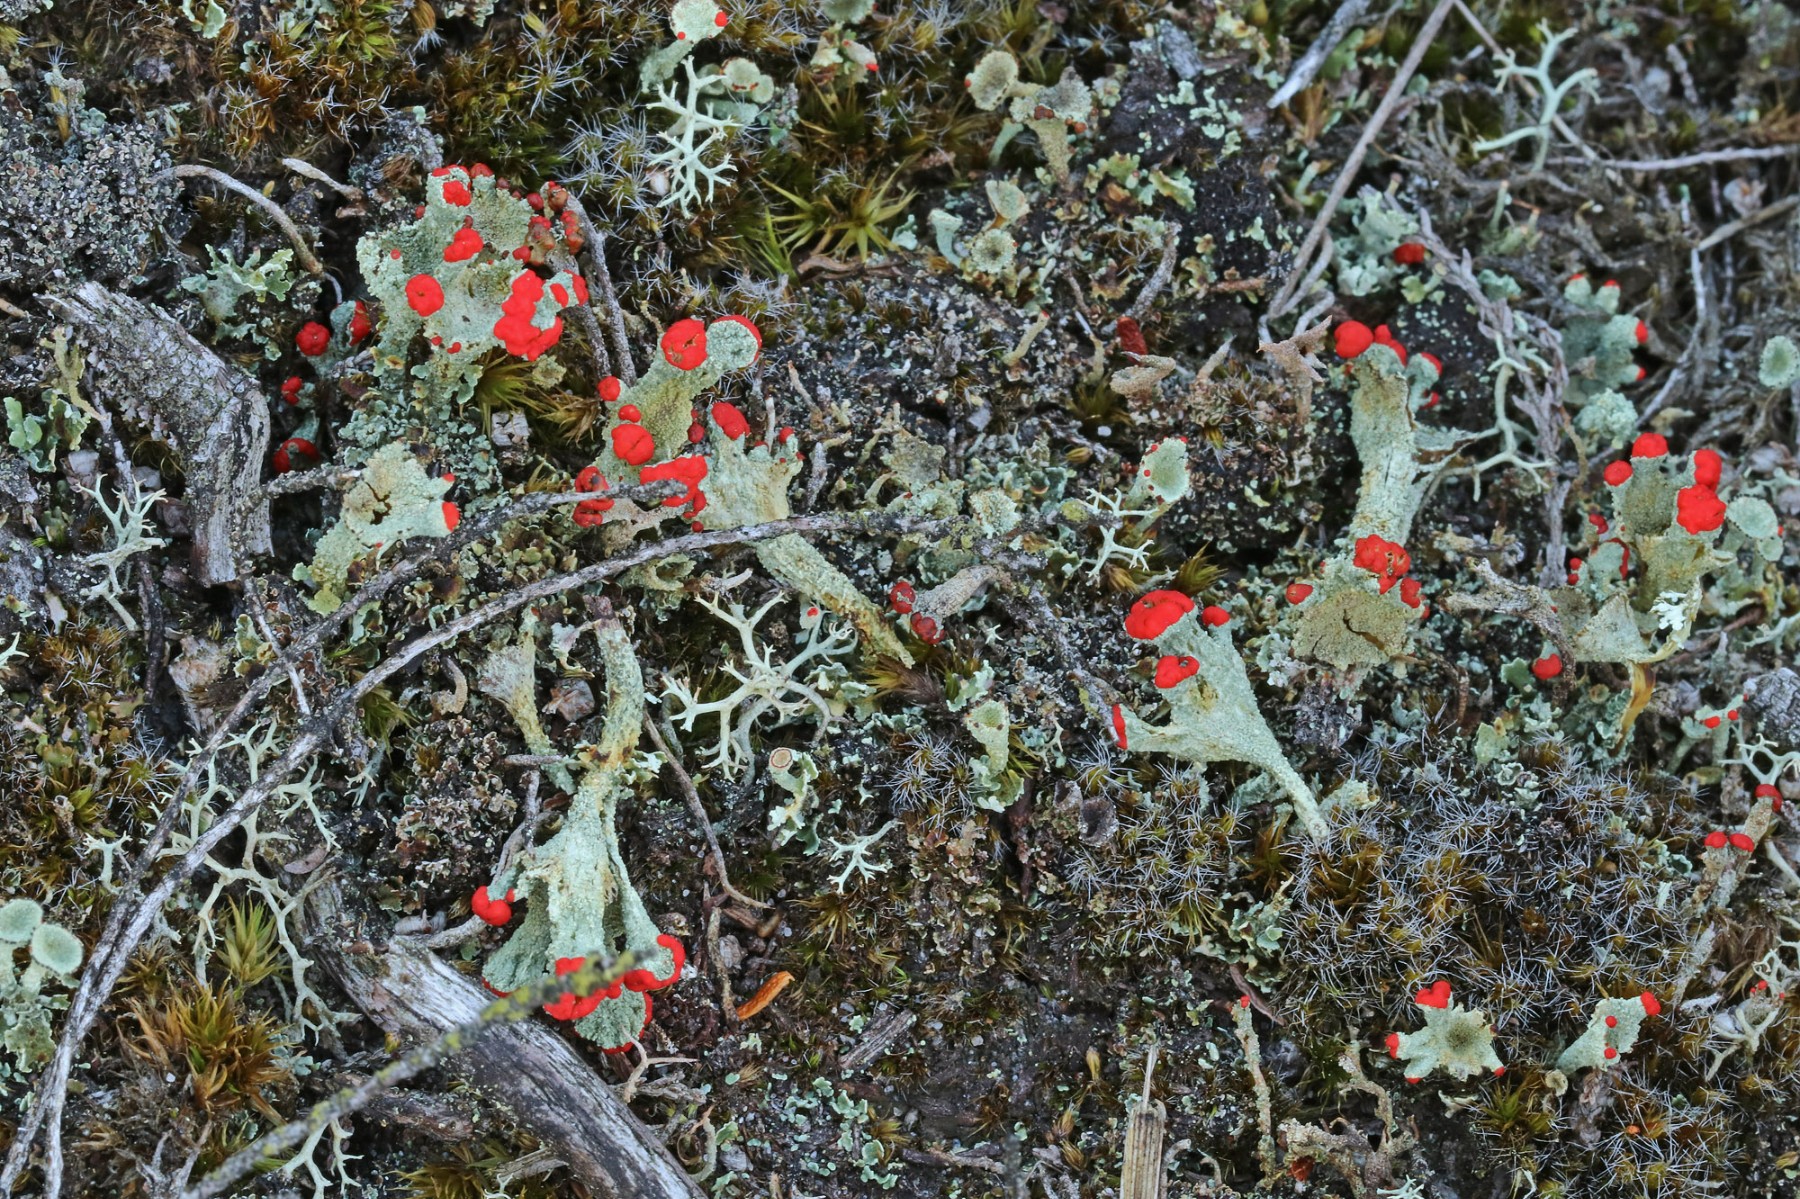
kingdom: Fungi
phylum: Ascomycota
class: Lecanoromycetes
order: Lecanorales
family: Cladoniaceae
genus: Cladonia
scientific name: Cladonia diversa
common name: rød bægerlav
